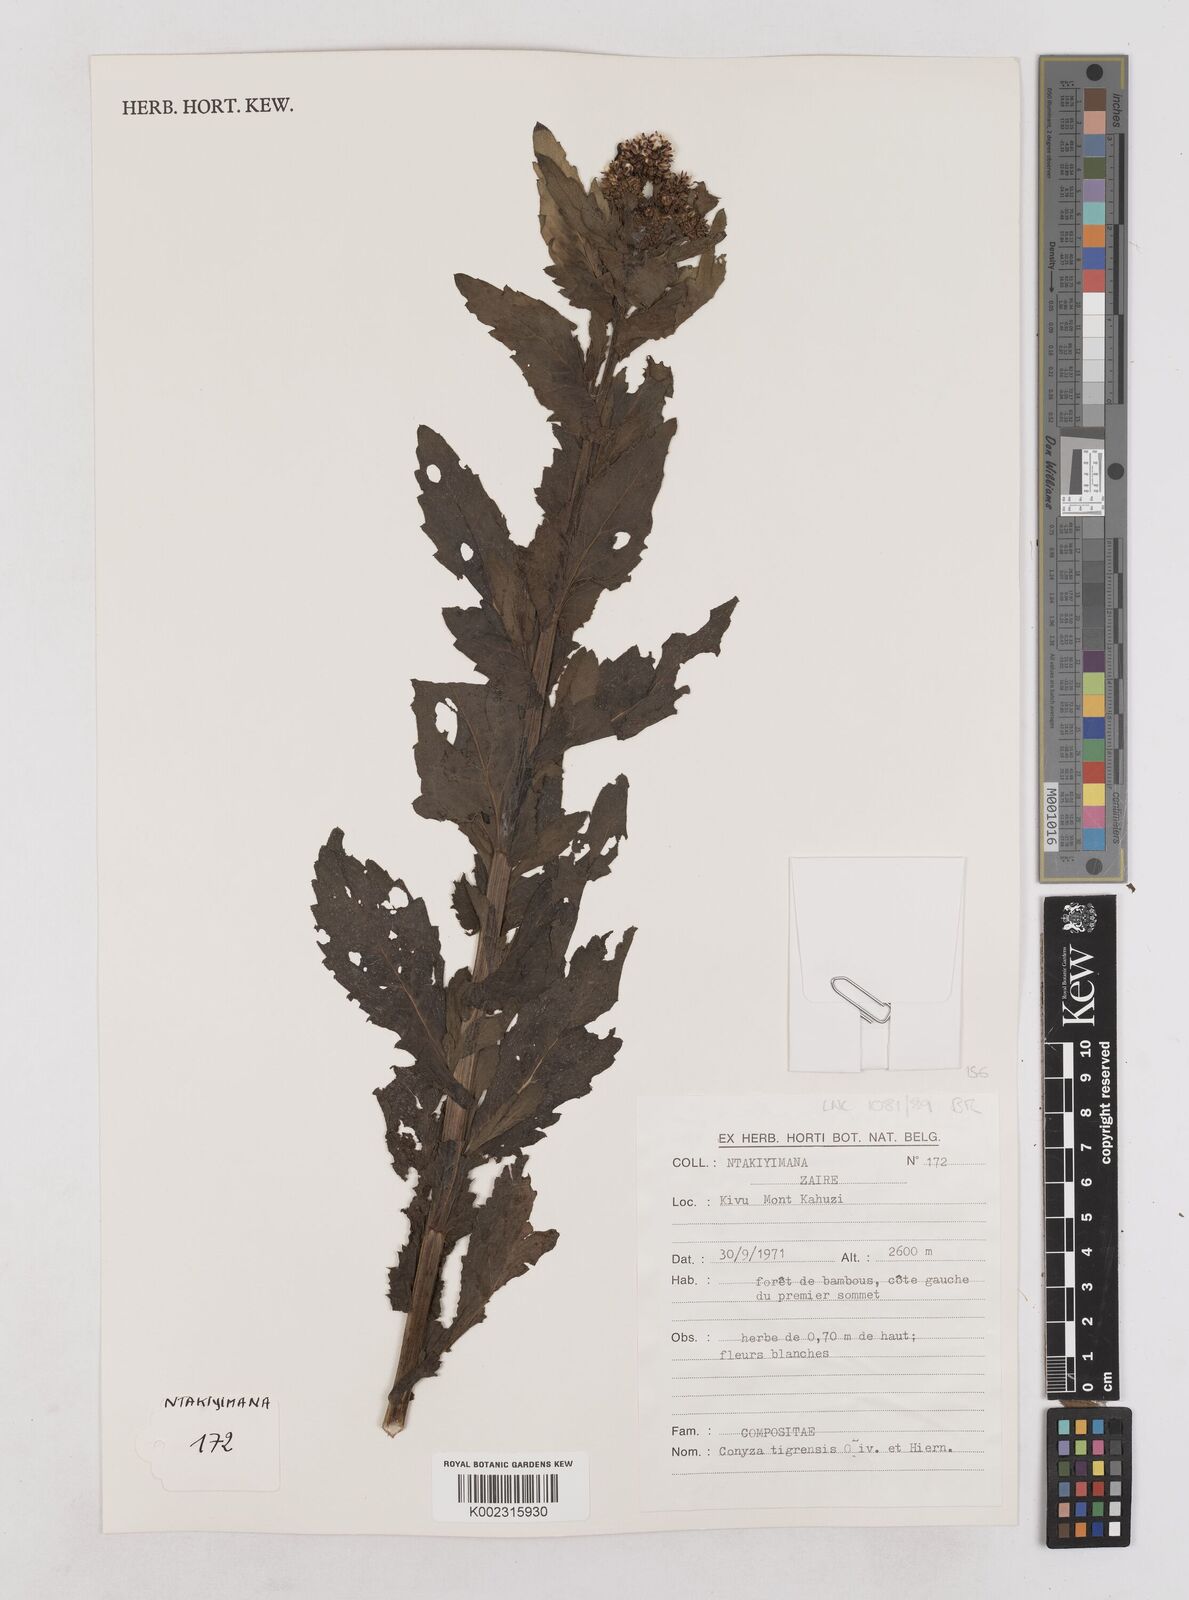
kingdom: Plantae
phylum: Tracheophyta
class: Magnoliopsida
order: Asterales
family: Asteraceae
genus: Eschenbachia
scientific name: Eschenbachia tigrensis
